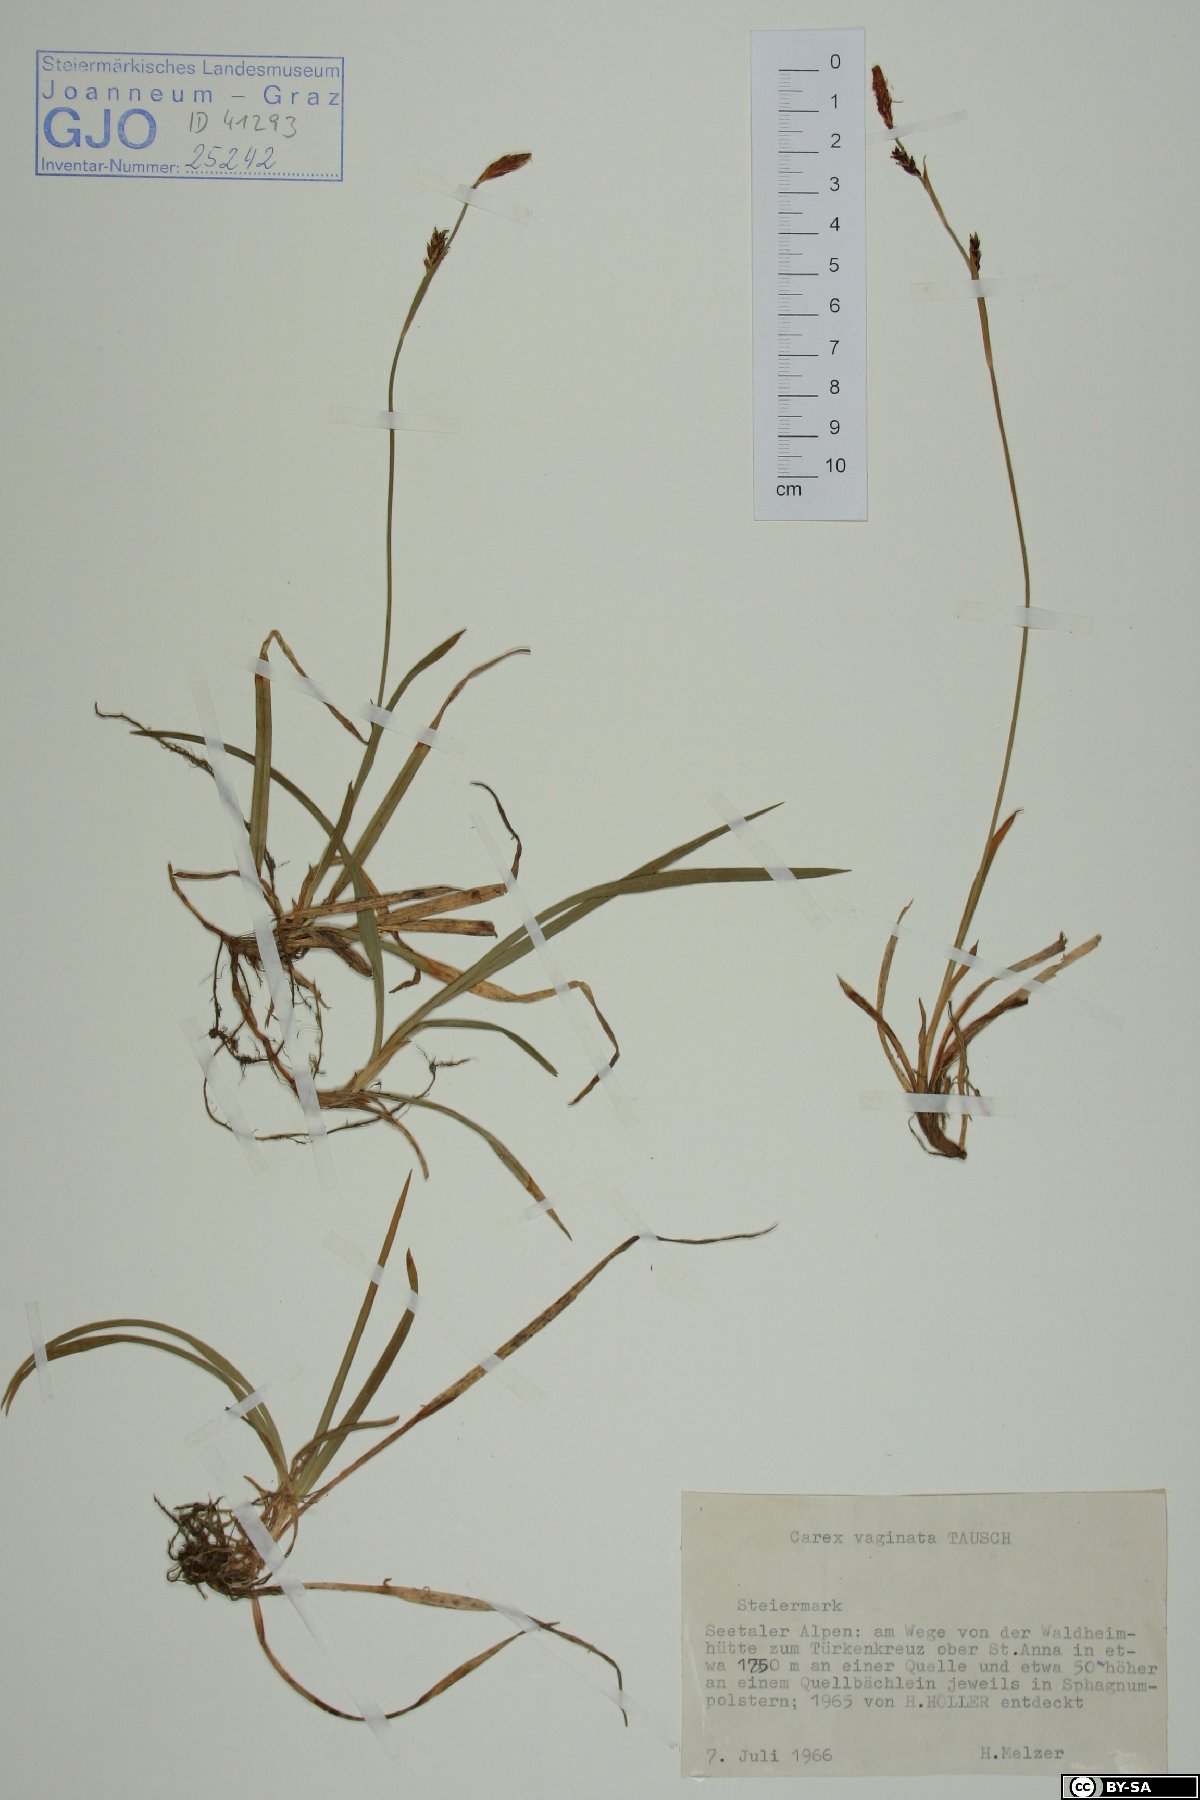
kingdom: Plantae
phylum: Tracheophyta
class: Liliopsida
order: Poales
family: Cyperaceae
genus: Carex
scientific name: Carex vaginata
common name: Sheathed sedge
